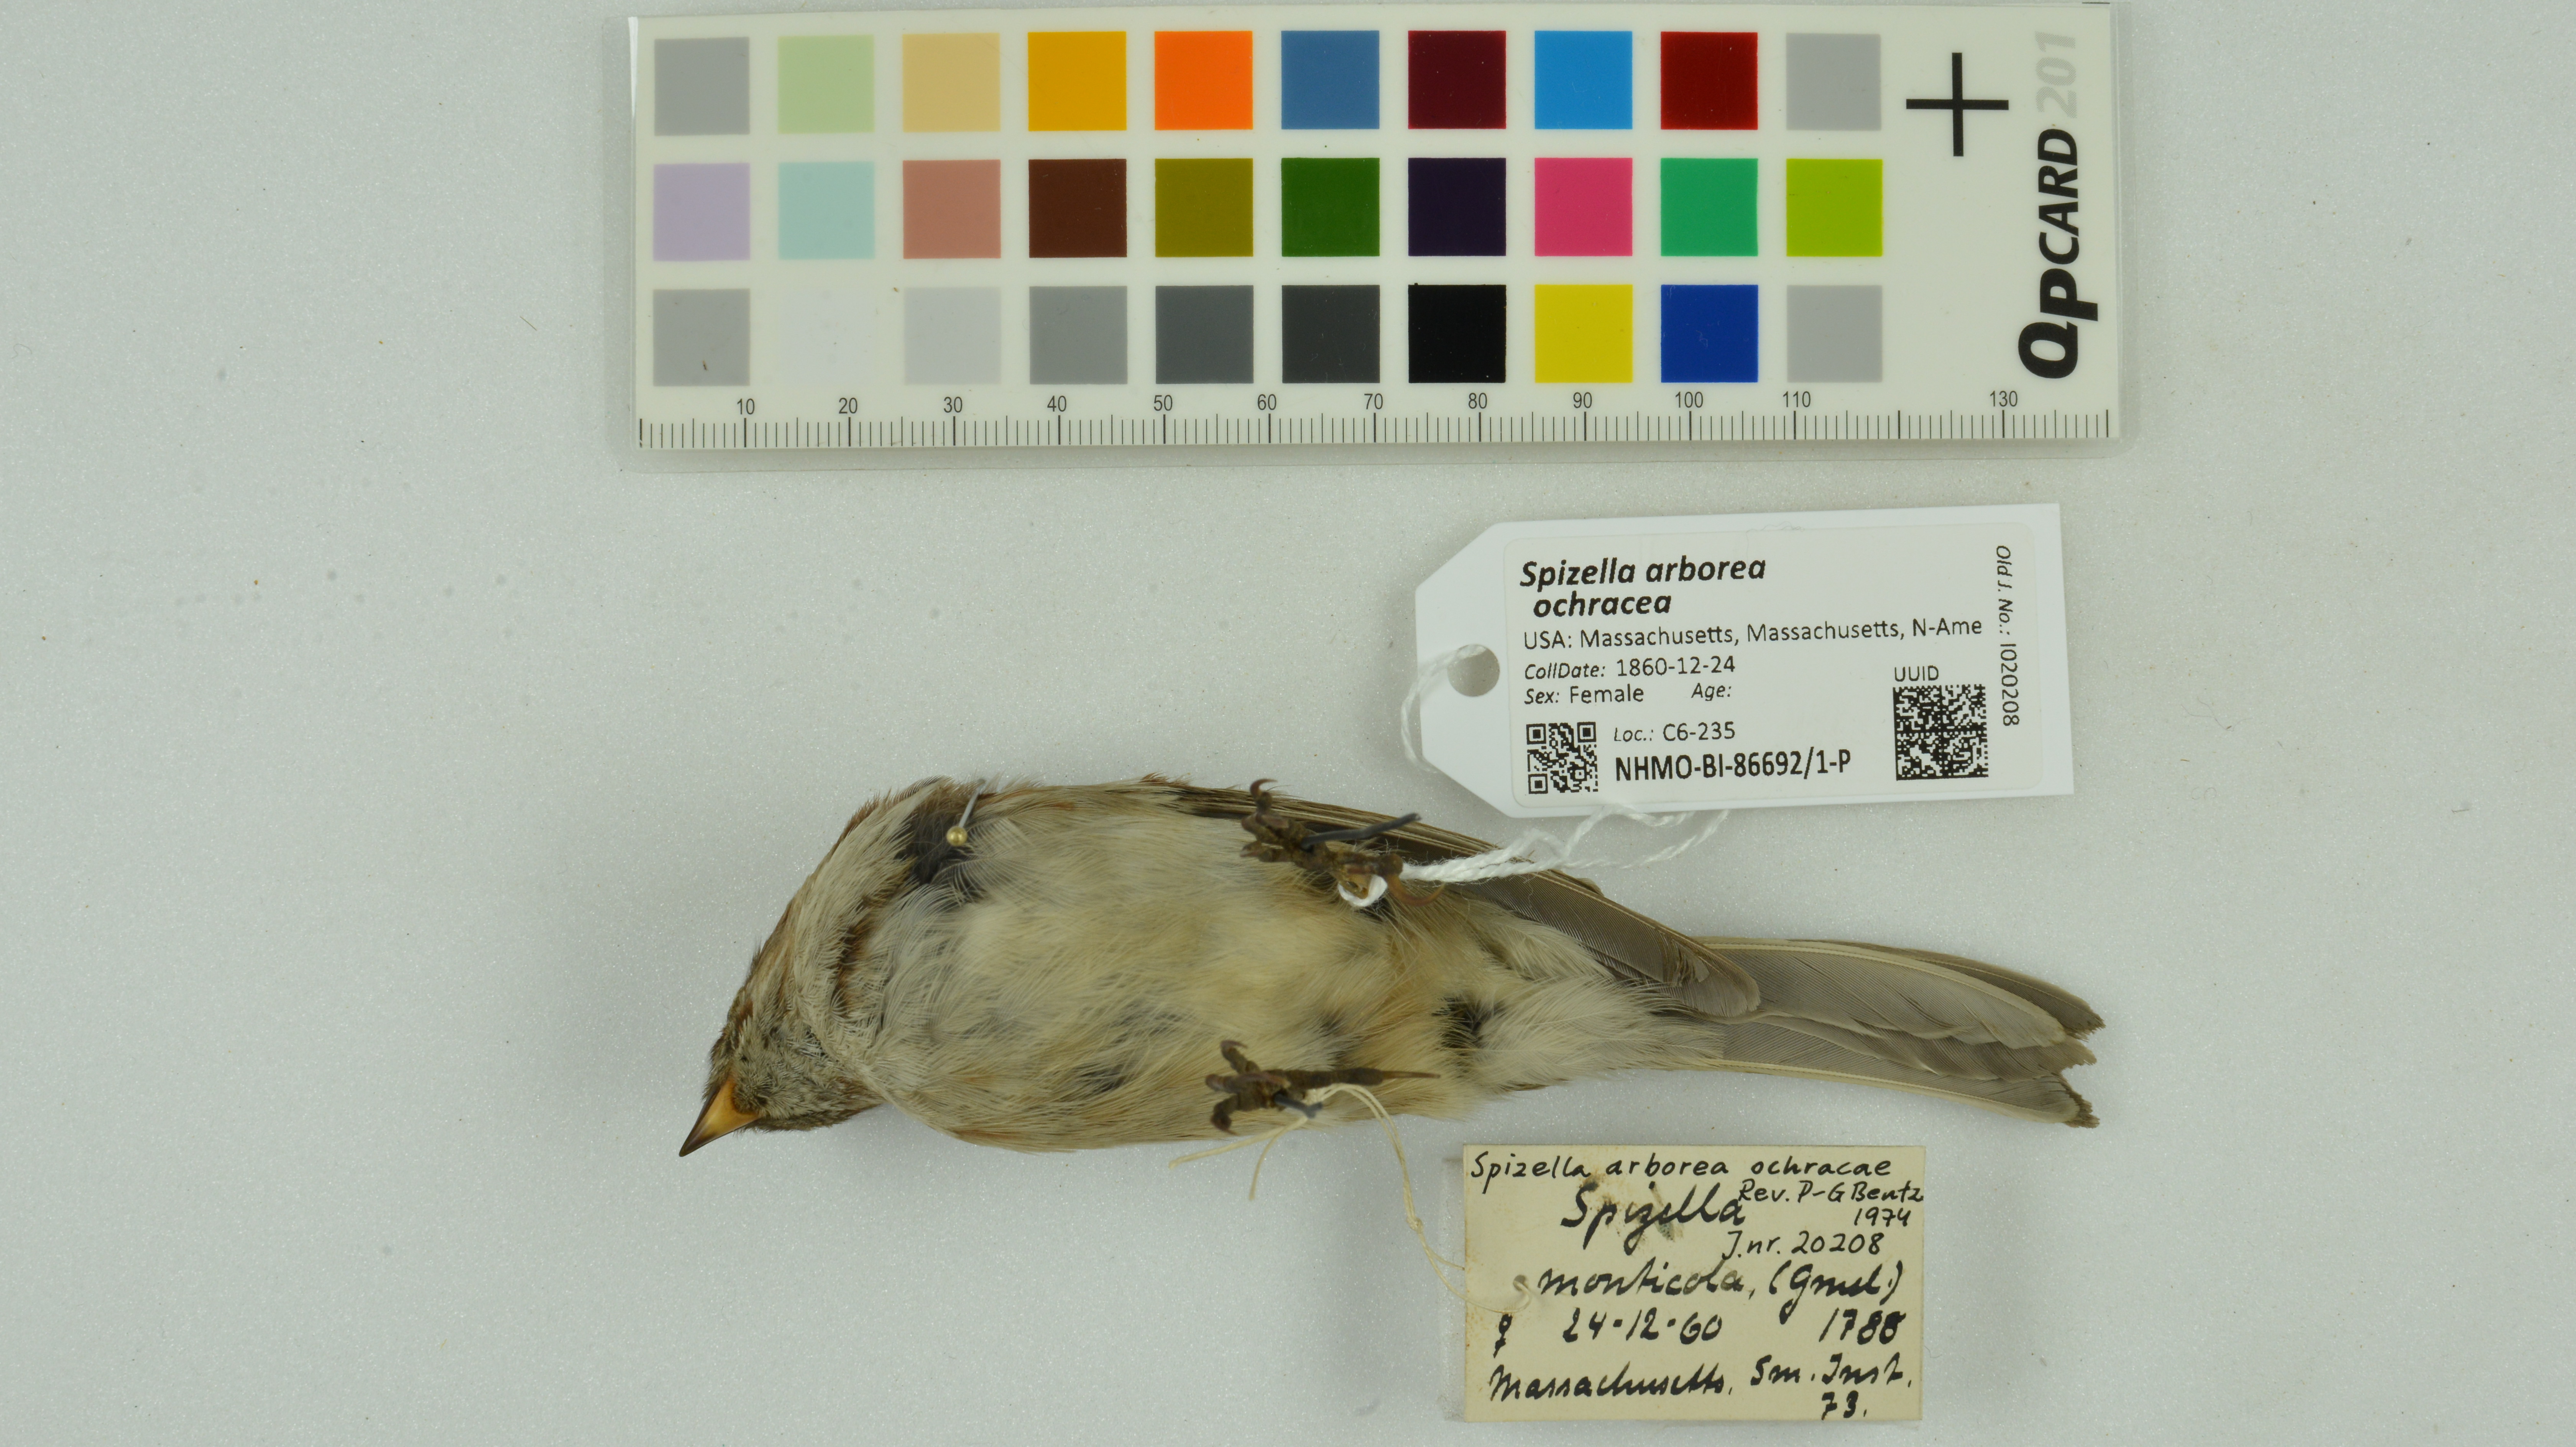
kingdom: Animalia
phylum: Chordata
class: Aves
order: Passeriformes
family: Passerellidae
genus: Spizelloides
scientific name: Spizelloides arborea
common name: American tree sparrow
